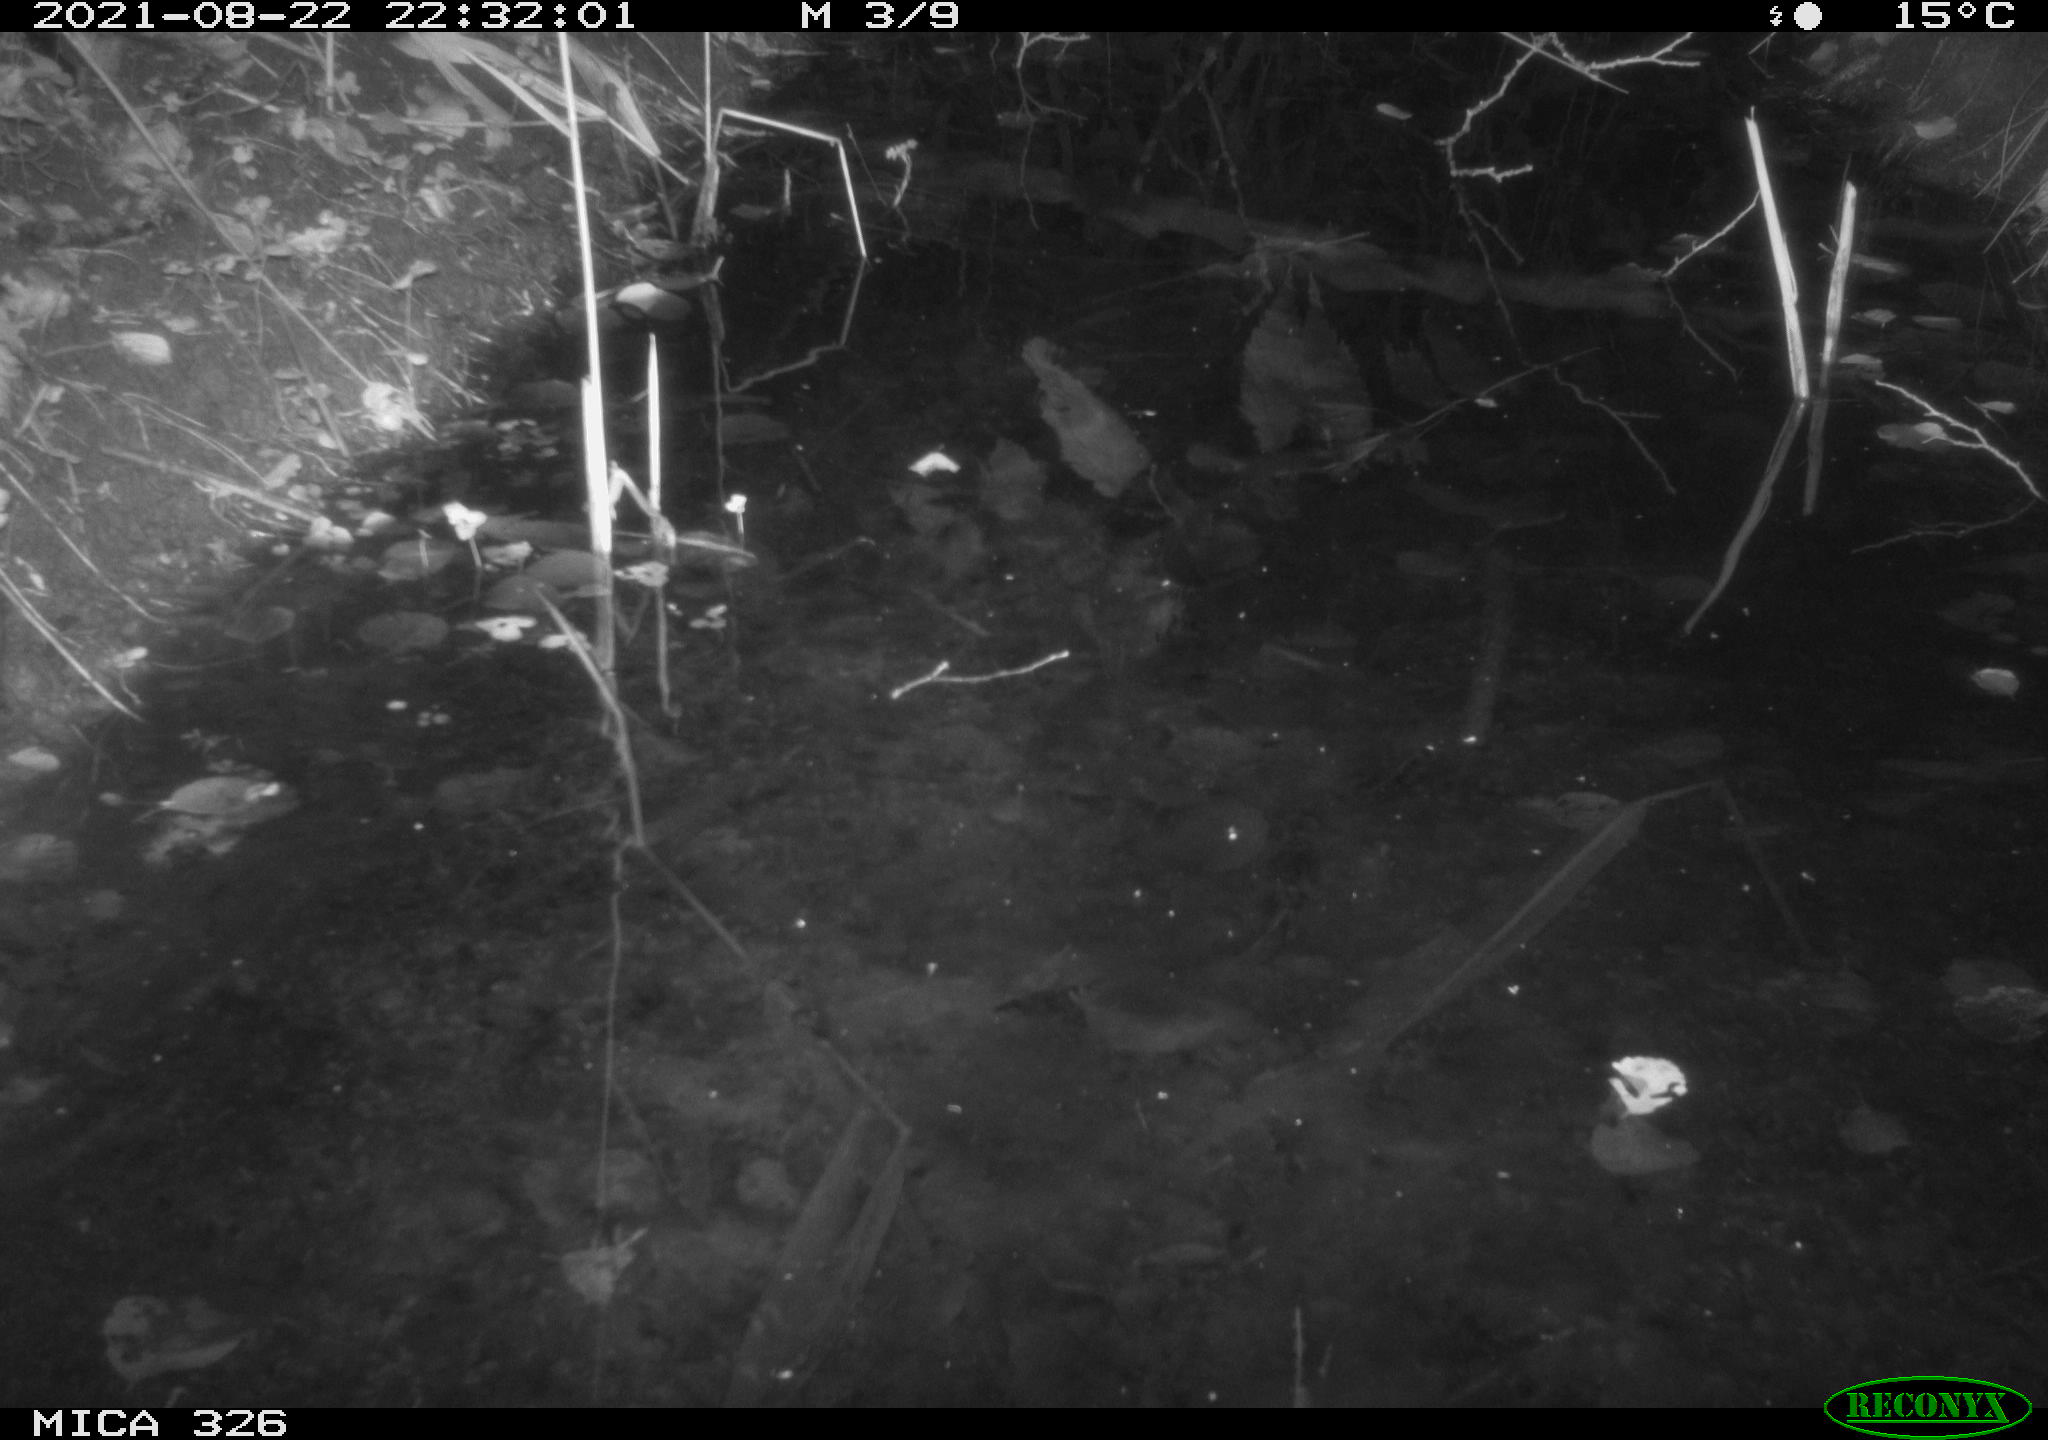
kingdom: Animalia
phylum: Chordata
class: Mammalia
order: Rodentia
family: Muridae
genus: Rattus
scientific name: Rattus norvegicus
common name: Brown rat
